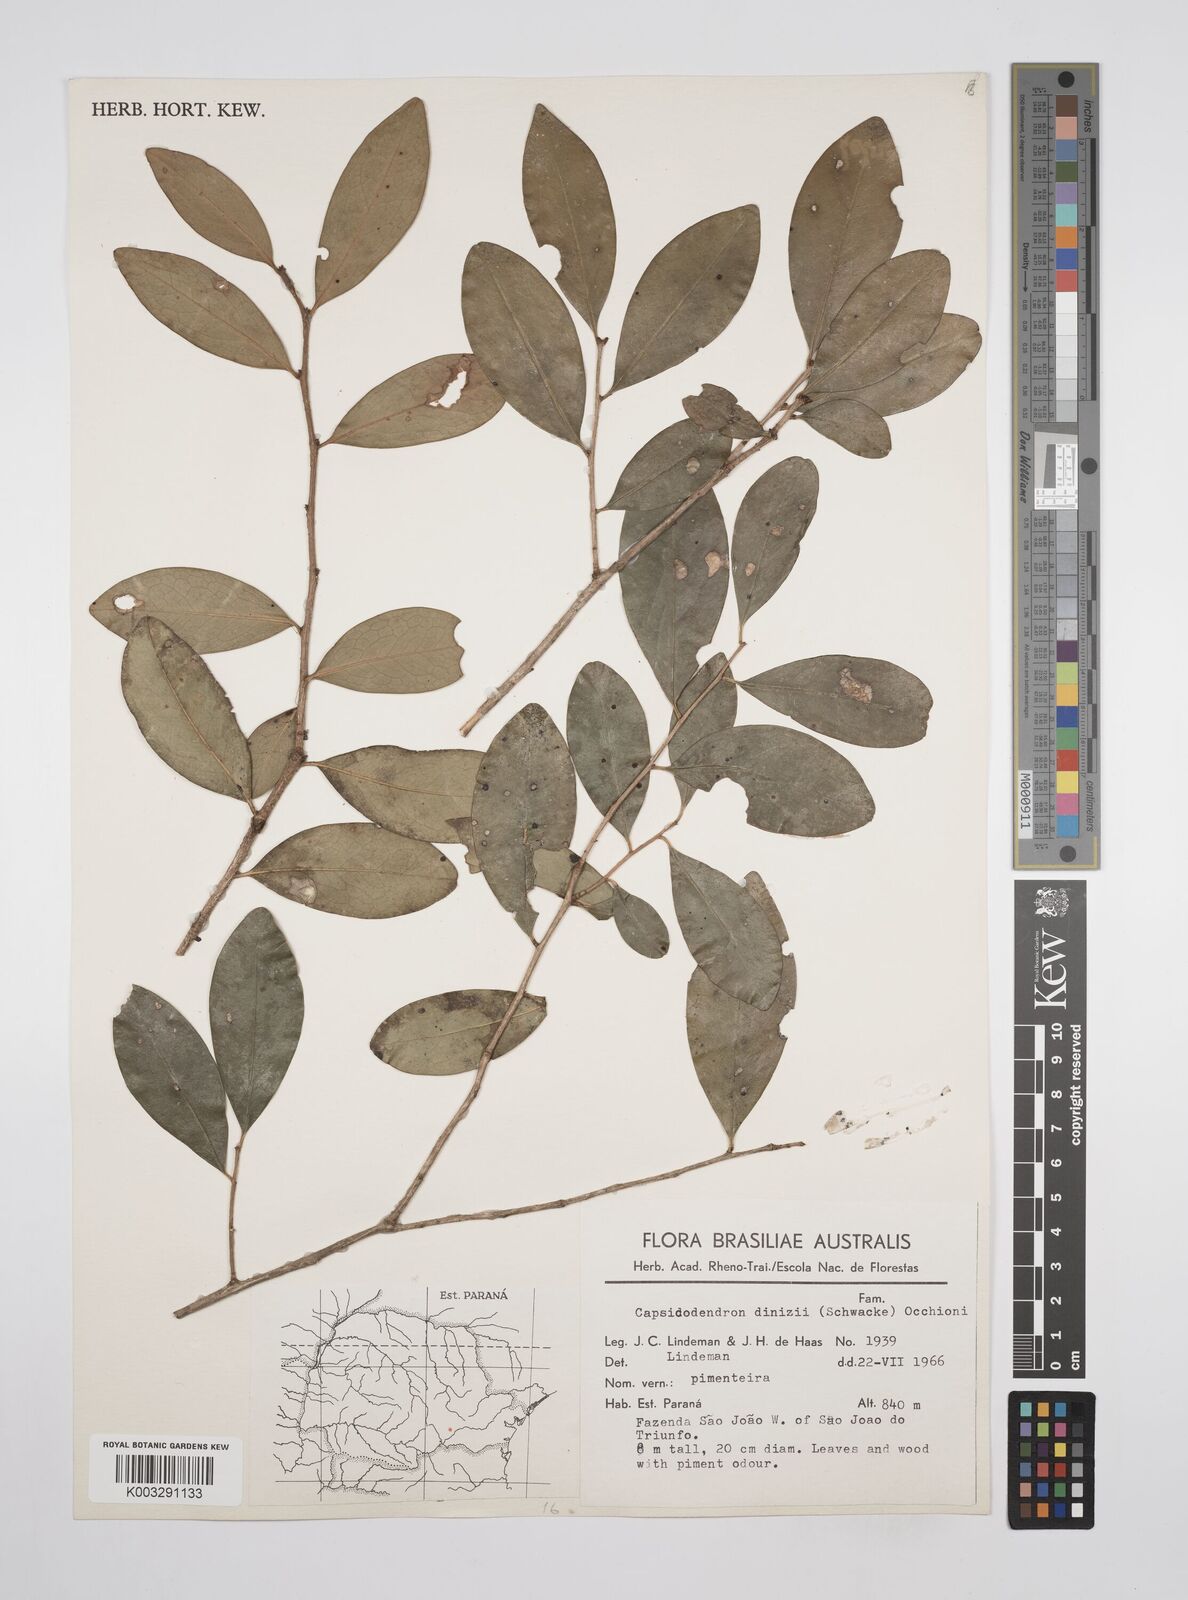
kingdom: Plantae
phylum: Tracheophyta
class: Magnoliopsida
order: Canellales
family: Canellaceae
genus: Cinnamodendron
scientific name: Cinnamodendron dinisii
